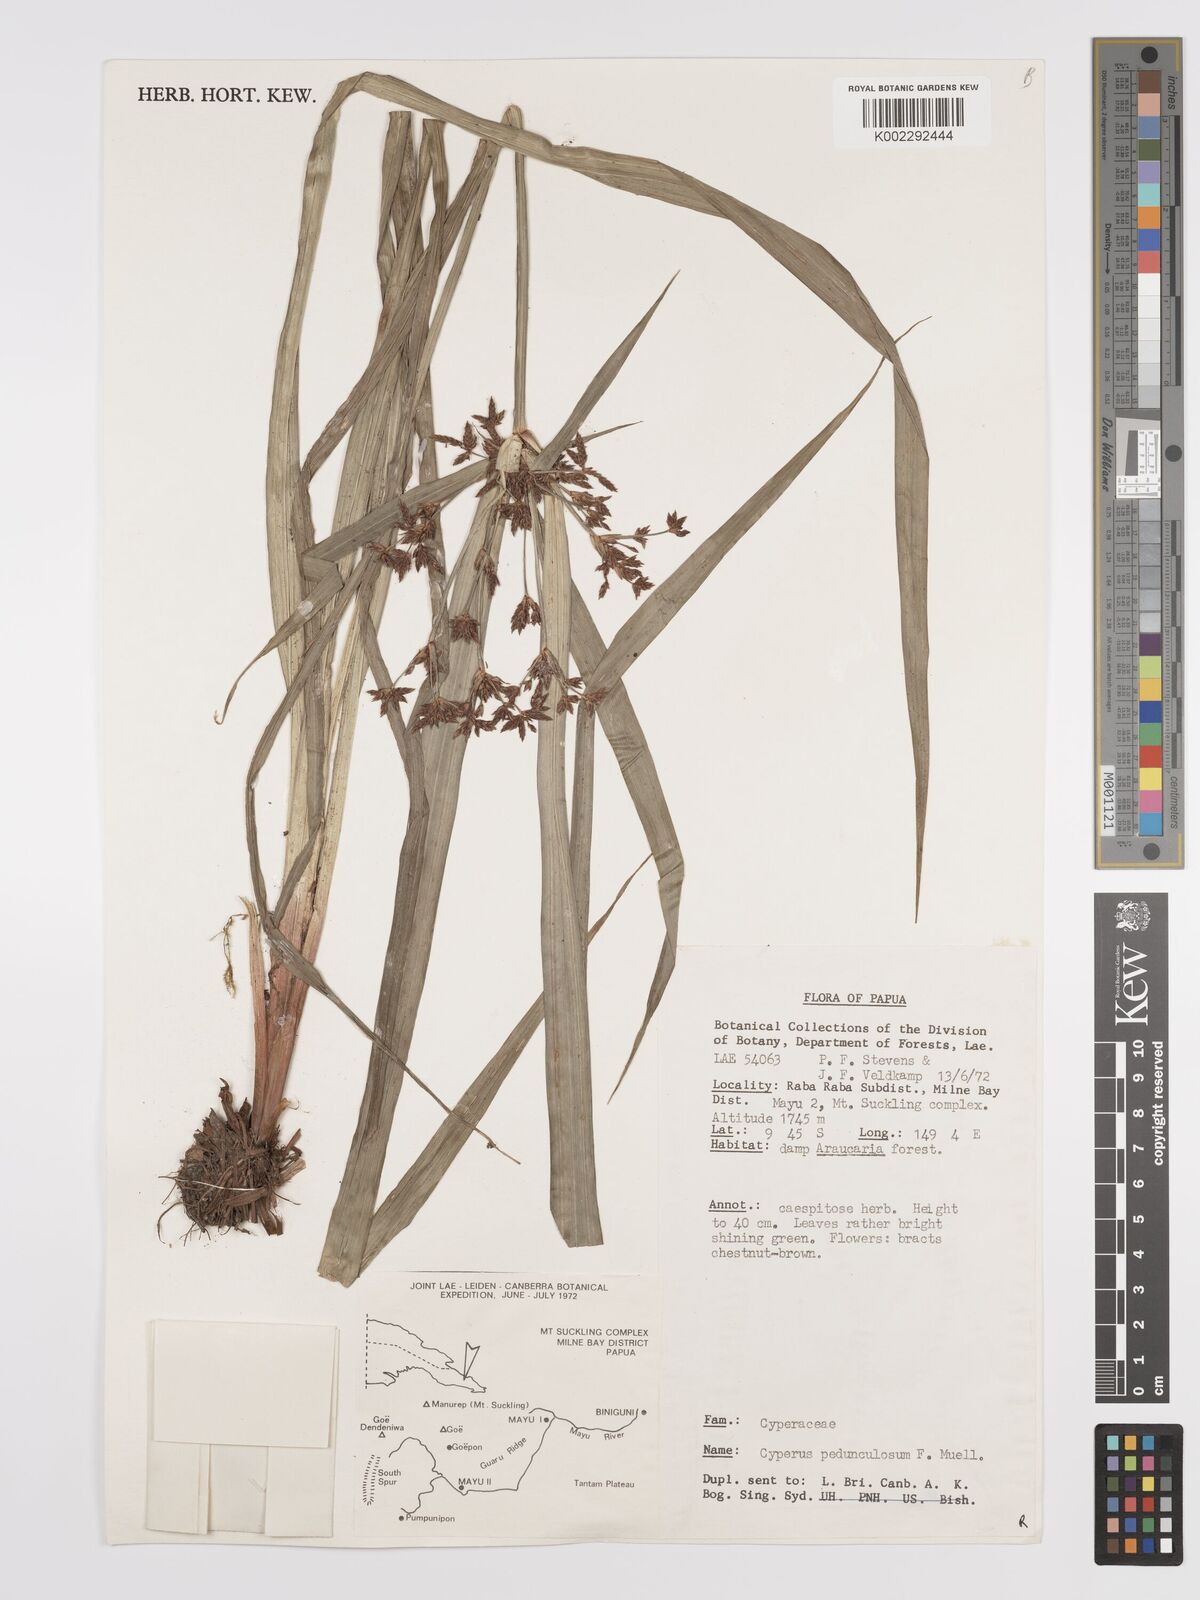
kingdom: Plantae
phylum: Tracheophyta
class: Liliopsida
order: Poales
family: Cyperaceae
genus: Cyperus
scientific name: Cyperus pedunculosus
